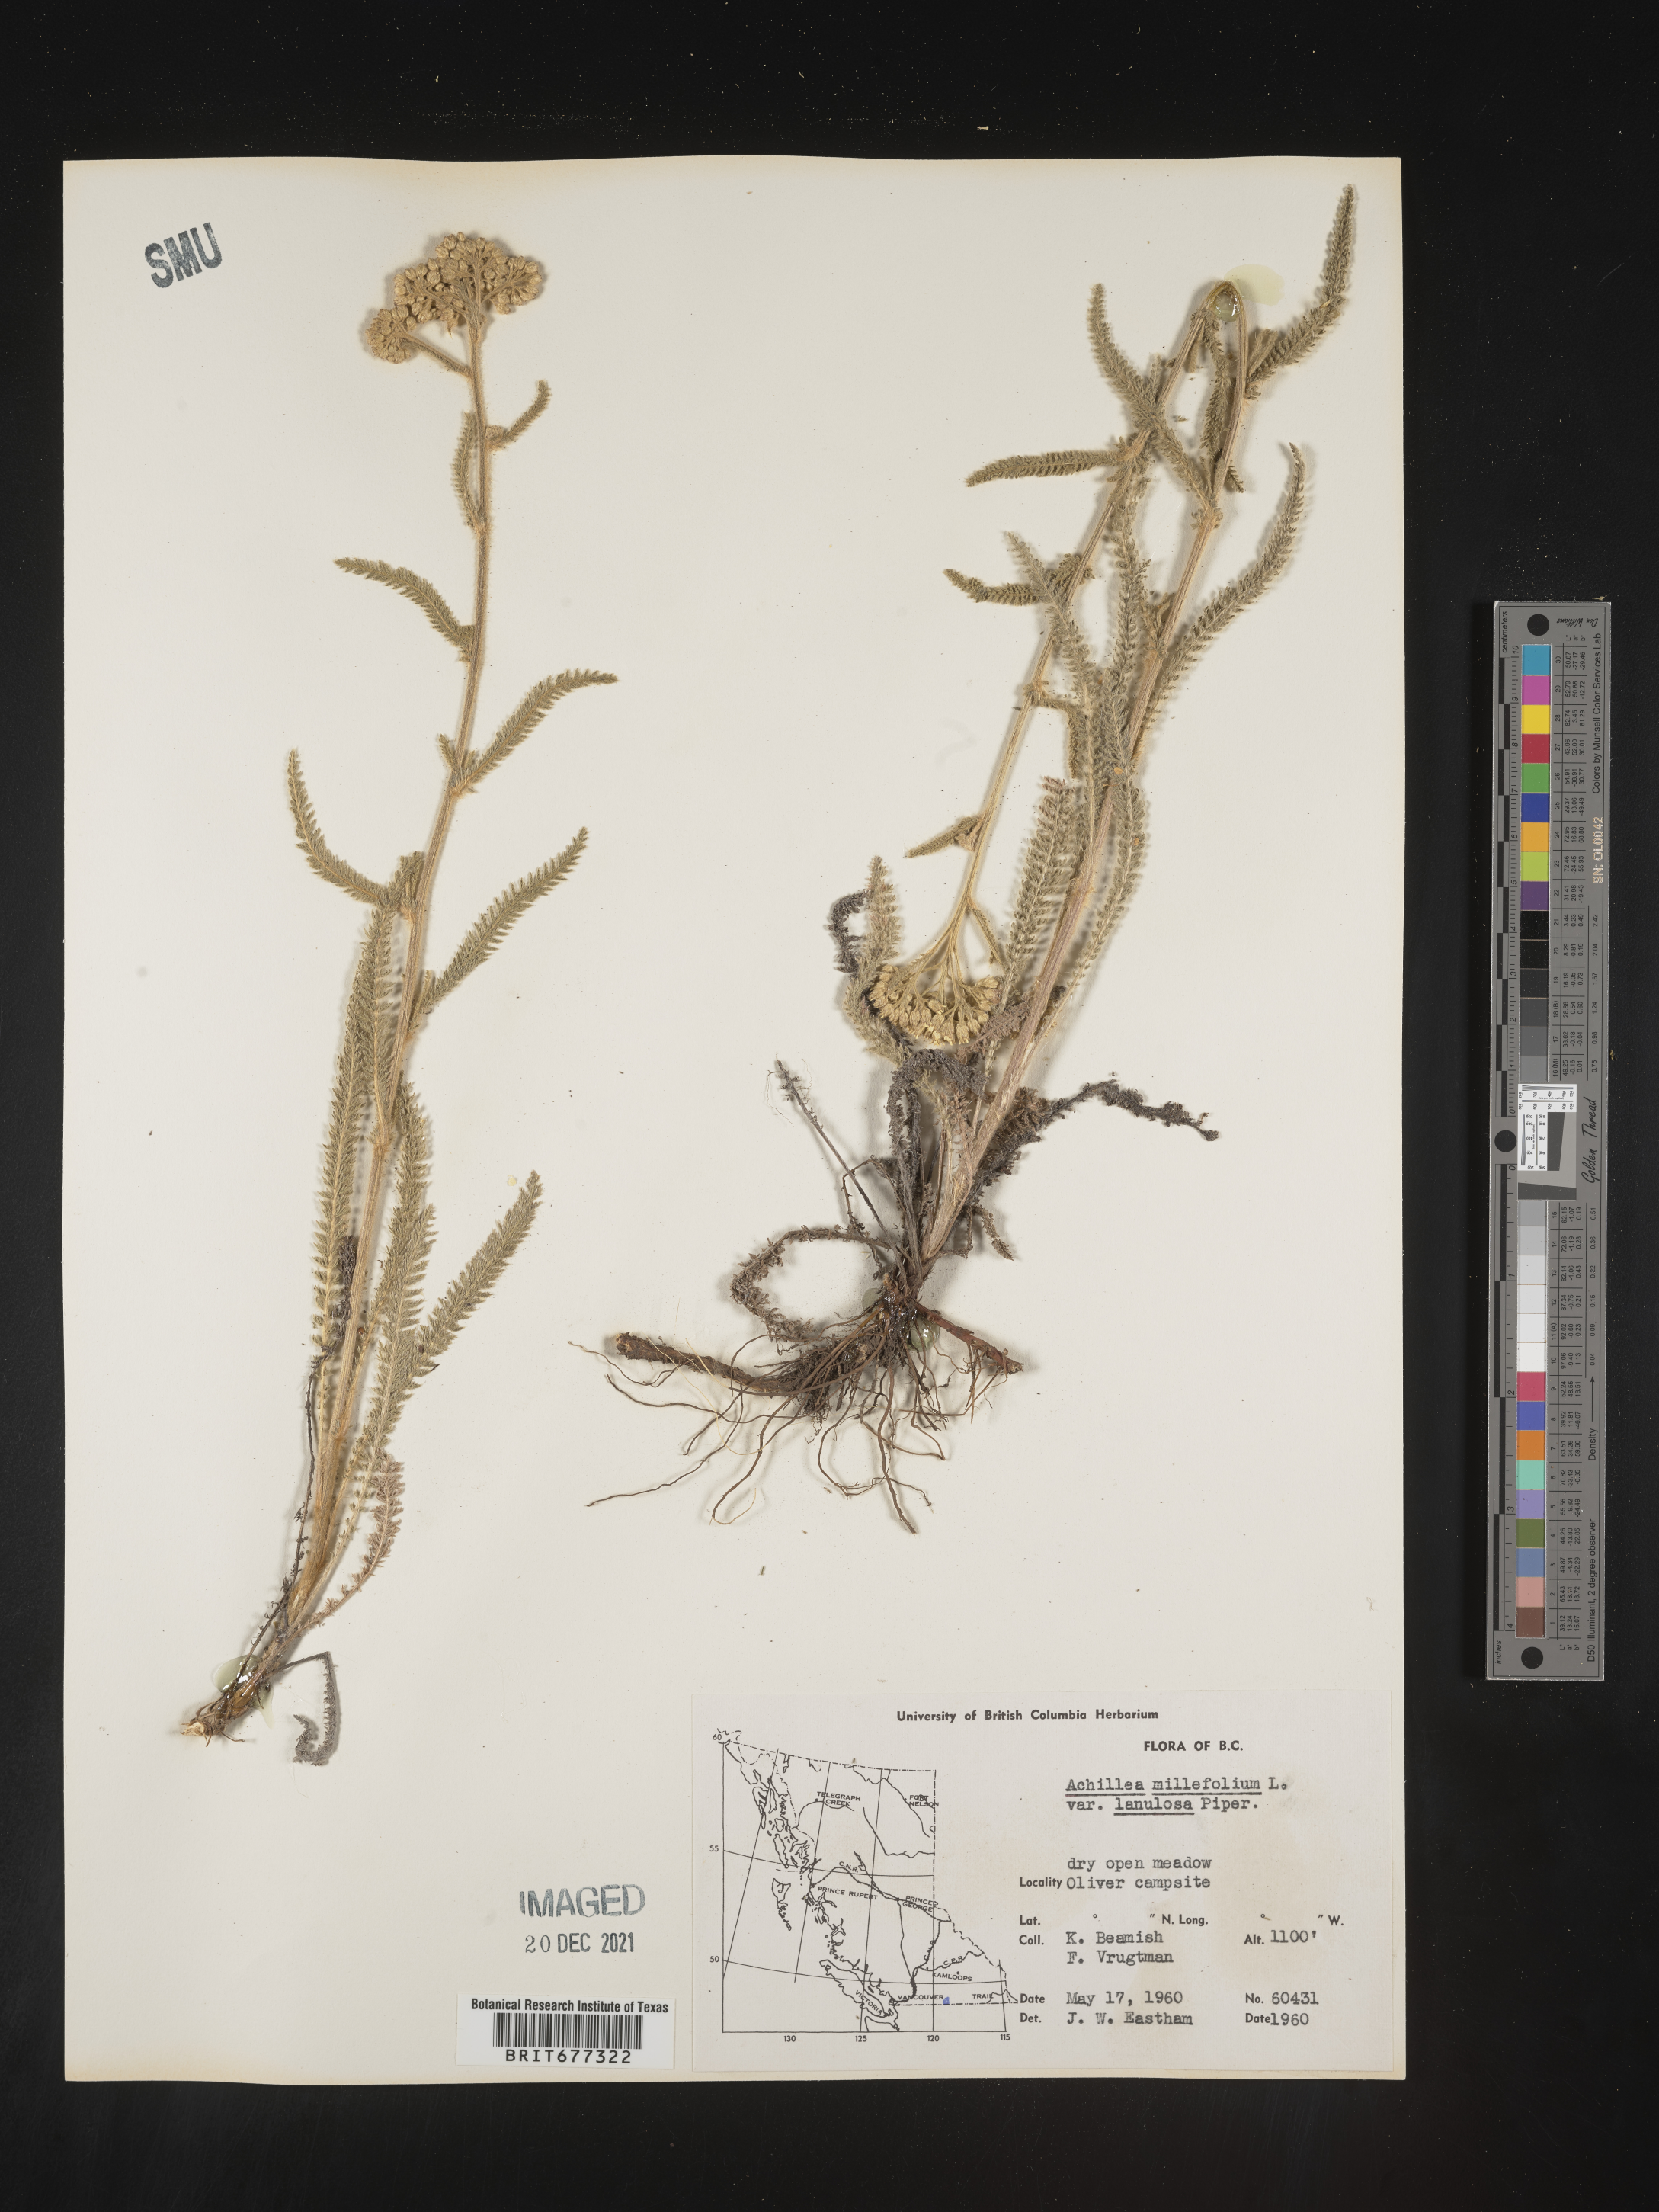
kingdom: Plantae
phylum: Tracheophyta
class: Magnoliopsida
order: Asterales
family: Asteraceae
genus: Achillea
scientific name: Achillea millefolium
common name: Yarrow
